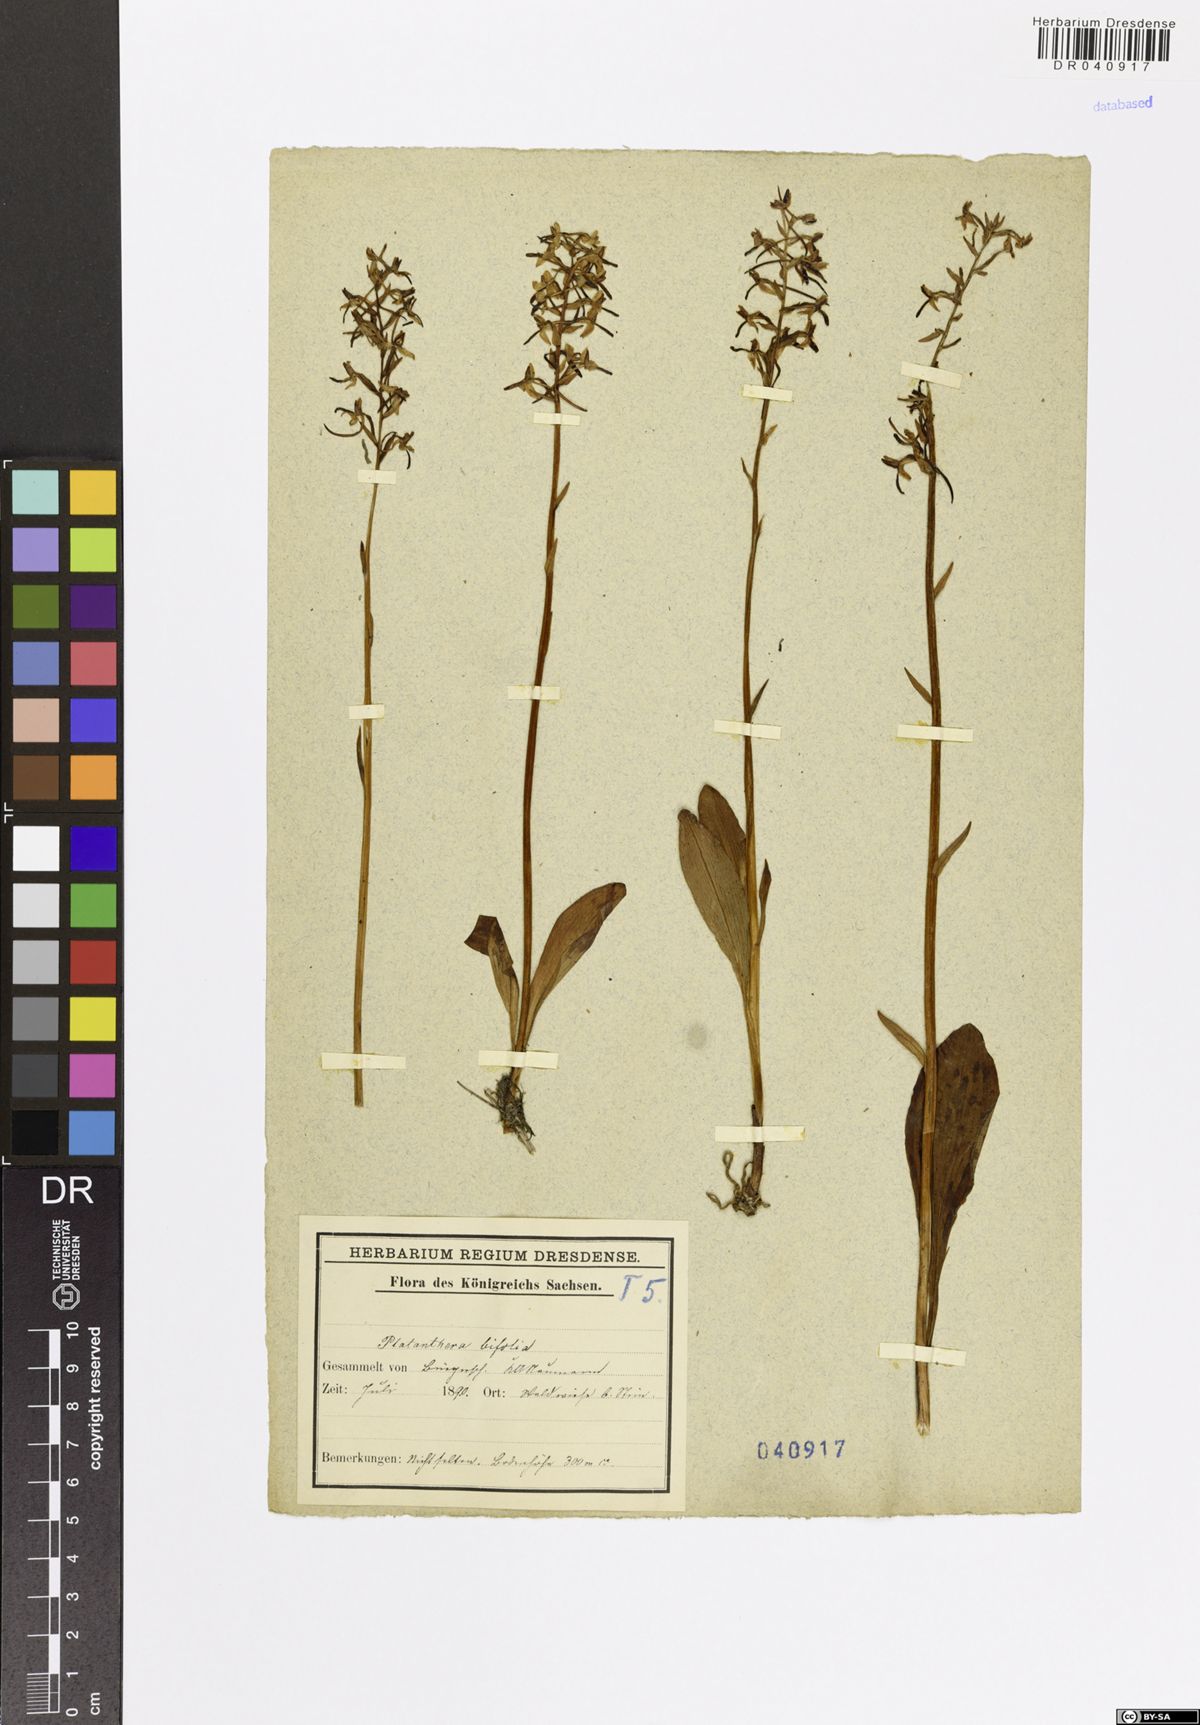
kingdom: Plantae
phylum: Tracheophyta
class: Liliopsida
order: Asparagales
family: Orchidaceae
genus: Platanthera
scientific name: Platanthera bifolia
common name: Lesser butterfly-orchid
